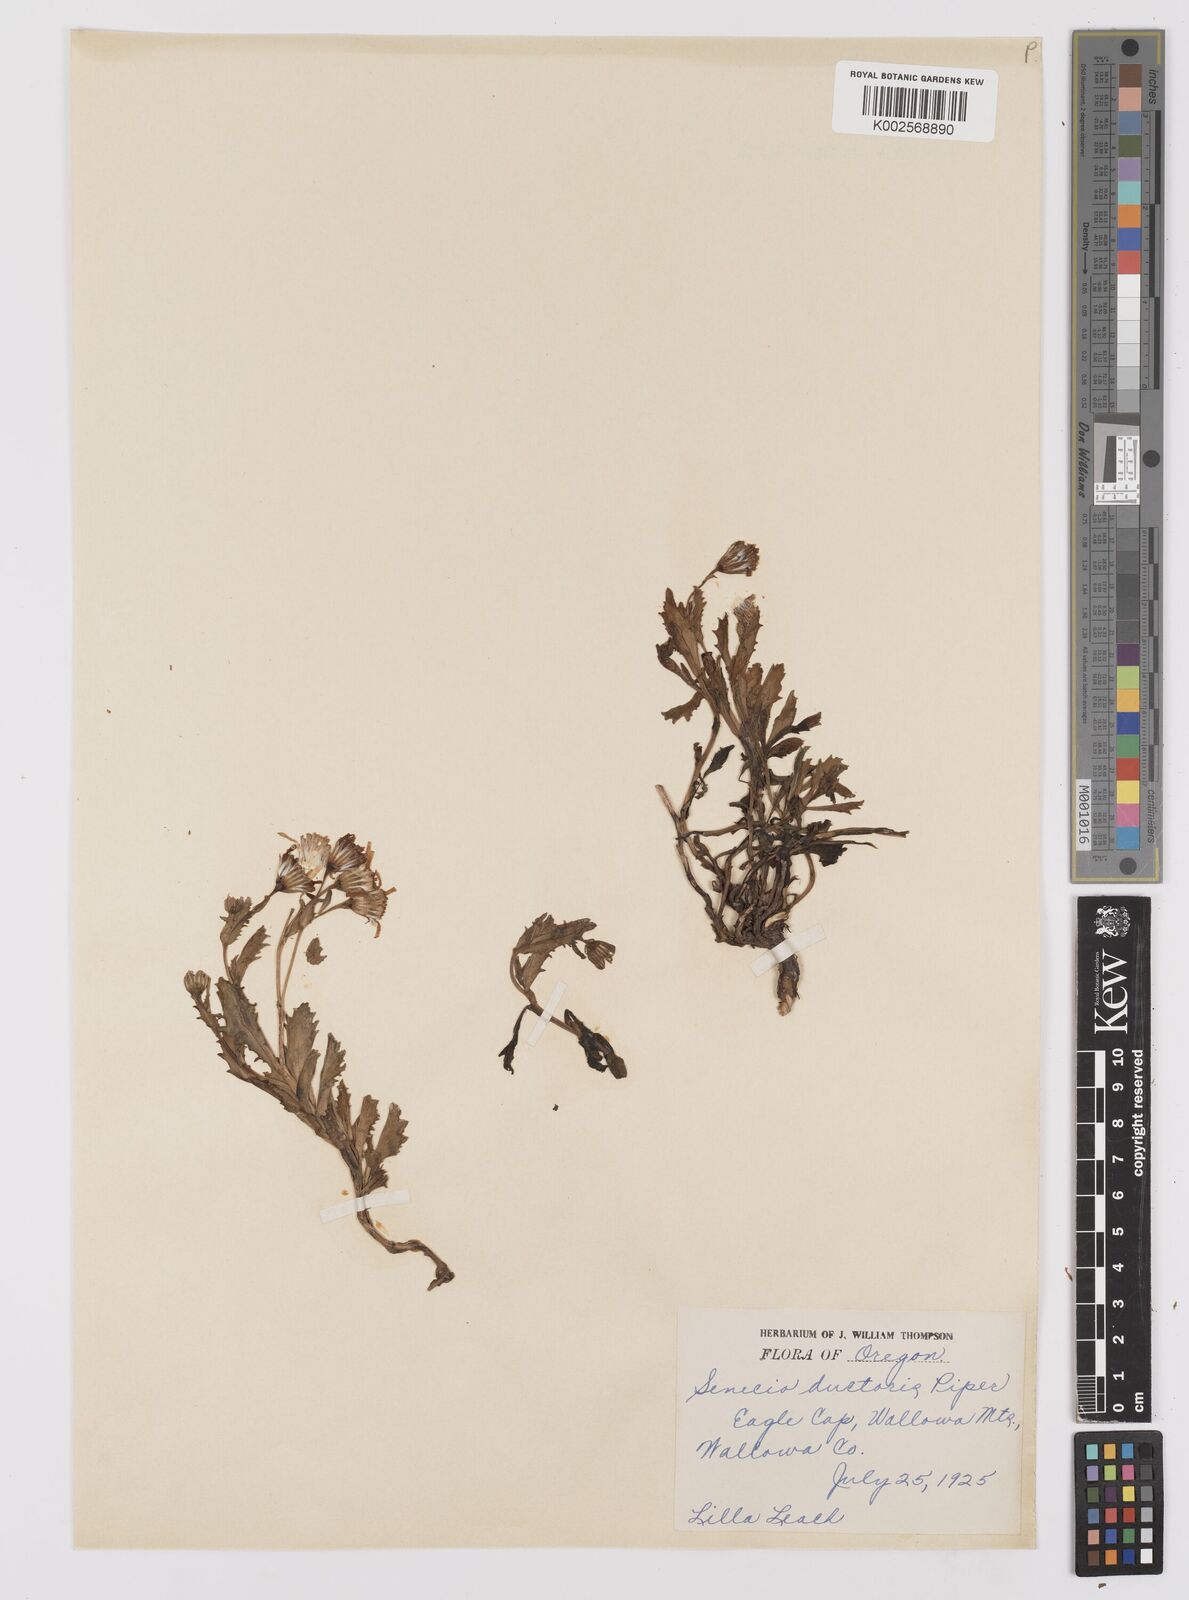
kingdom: Plantae
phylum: Tracheophyta
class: Magnoliopsida
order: Asterales
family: Asteraceae
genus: Senecio
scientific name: Senecio fremontii
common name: Fremont's groundsel
